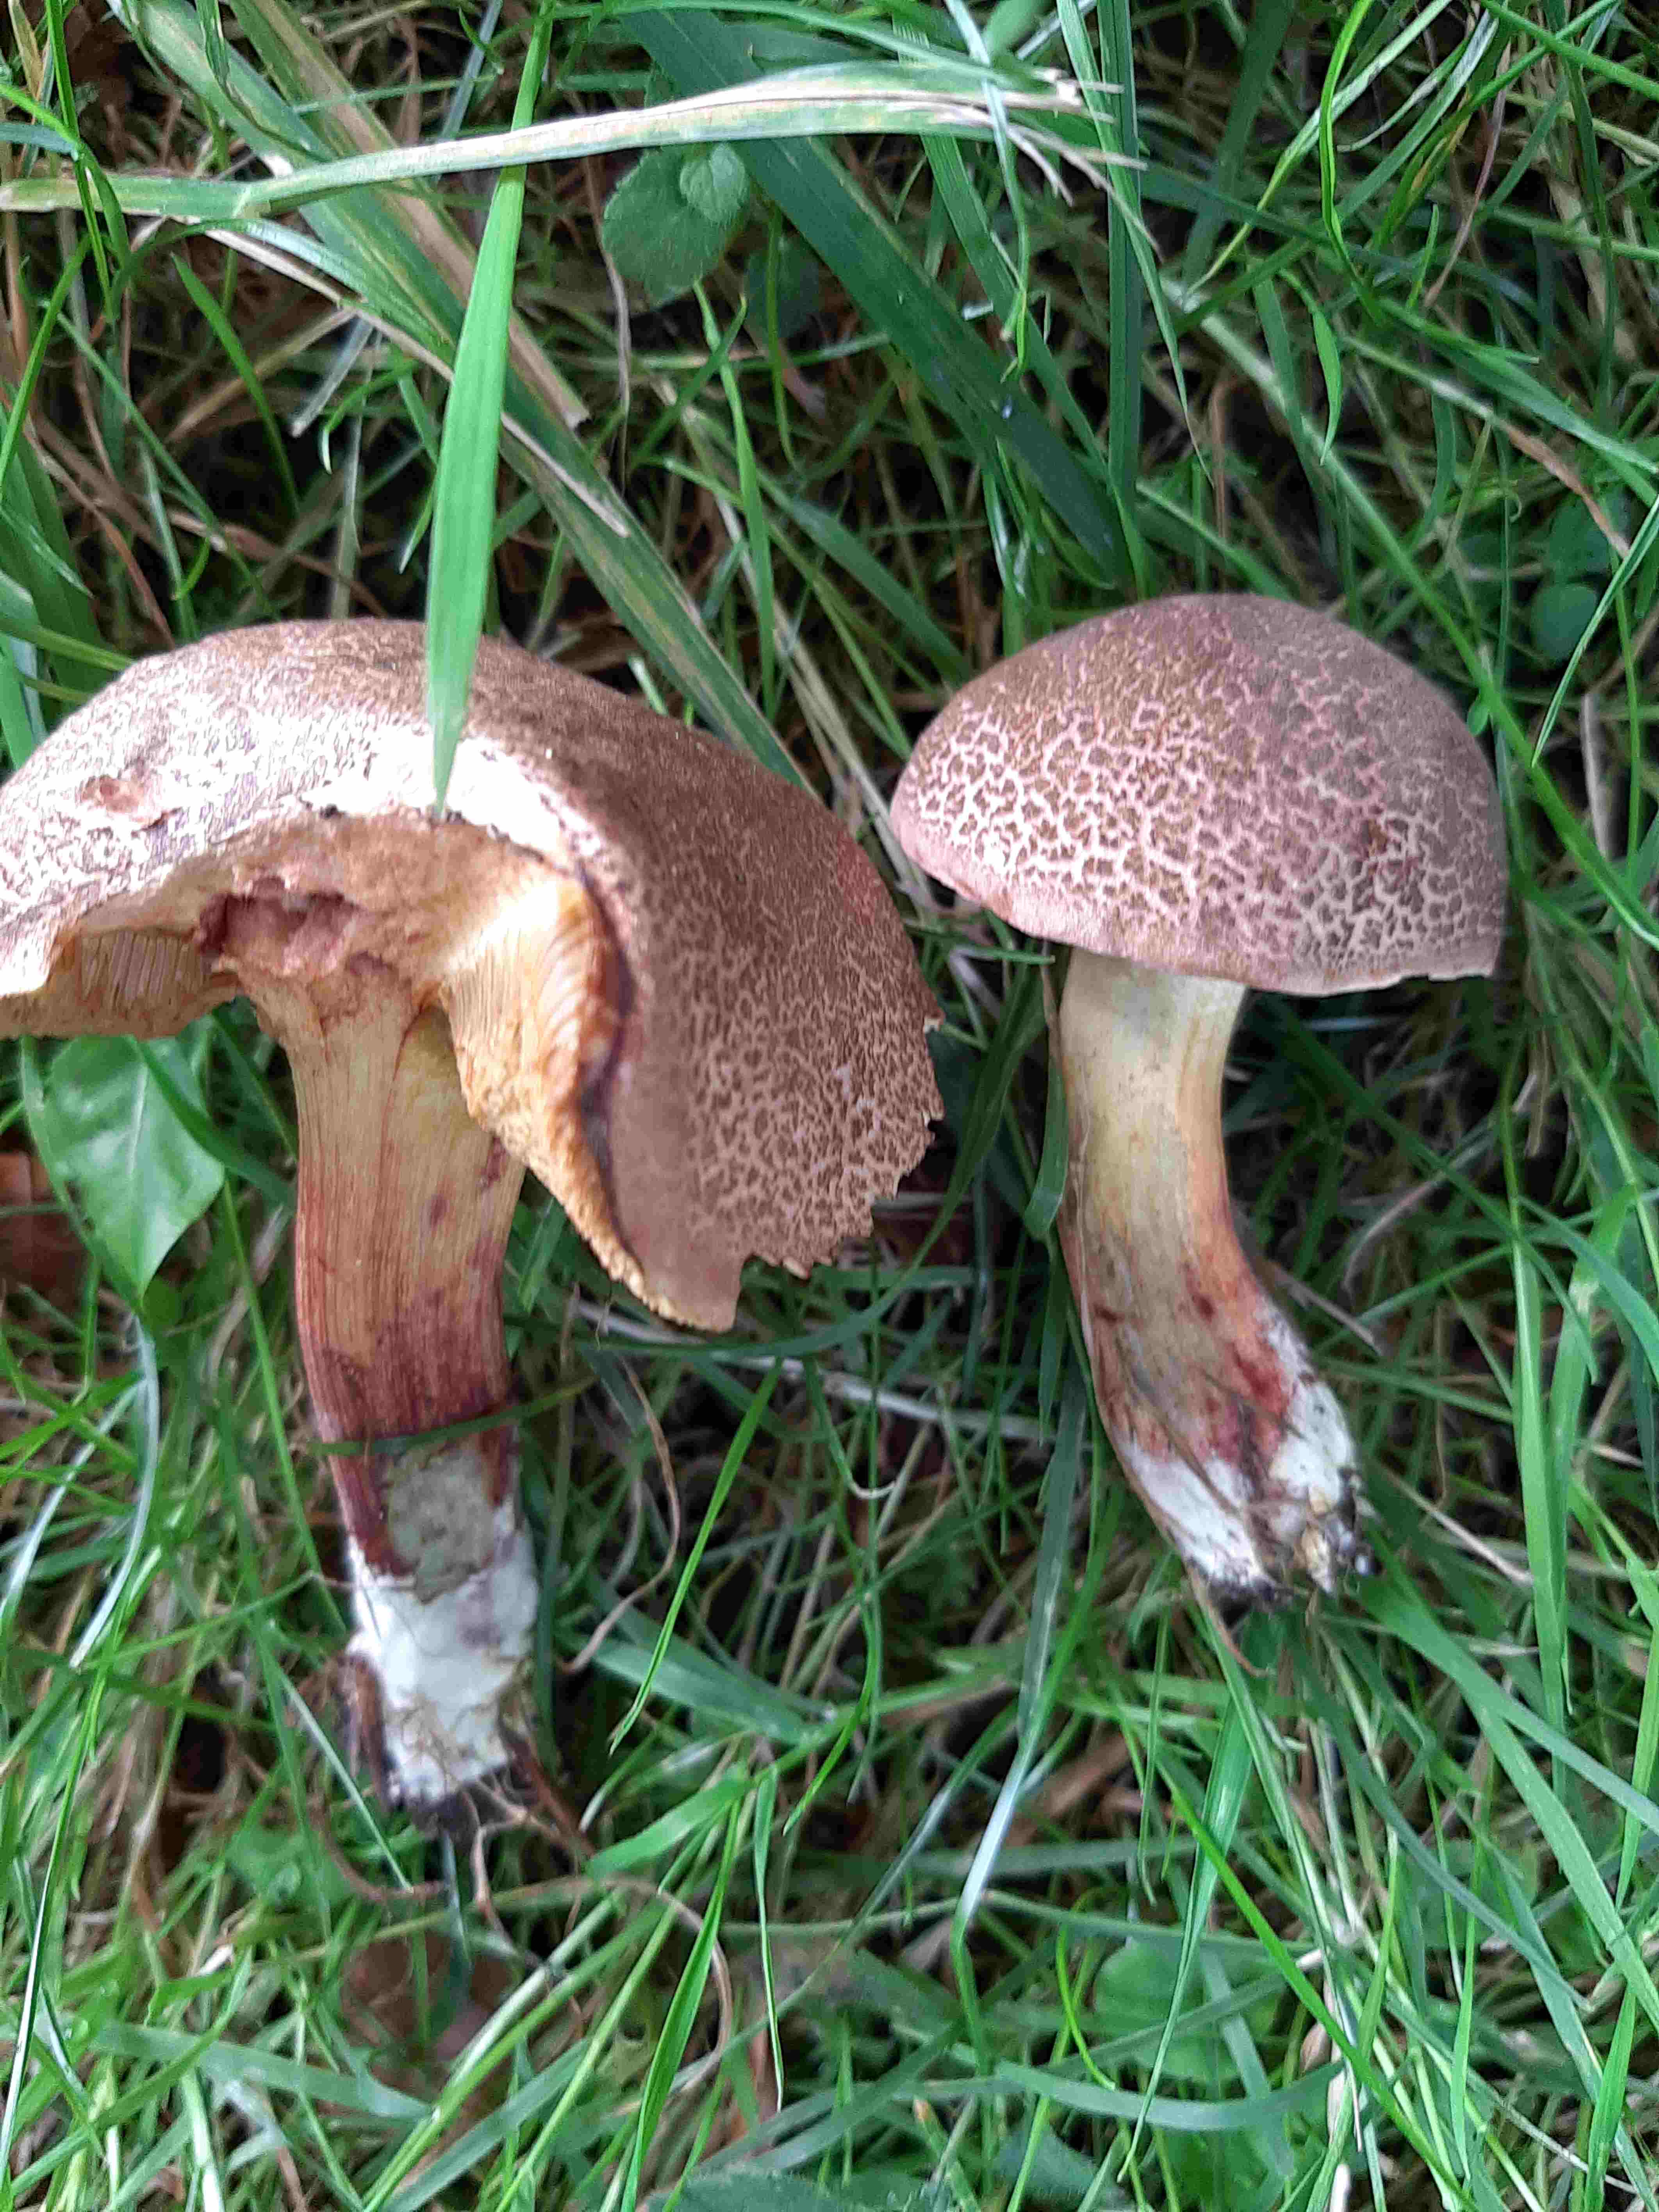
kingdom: Fungi
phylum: Basidiomycota
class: Agaricomycetes
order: Boletales
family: Boletaceae
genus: Xerocomellus
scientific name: Xerocomellus cisalpinus
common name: finsprukken rørhat
